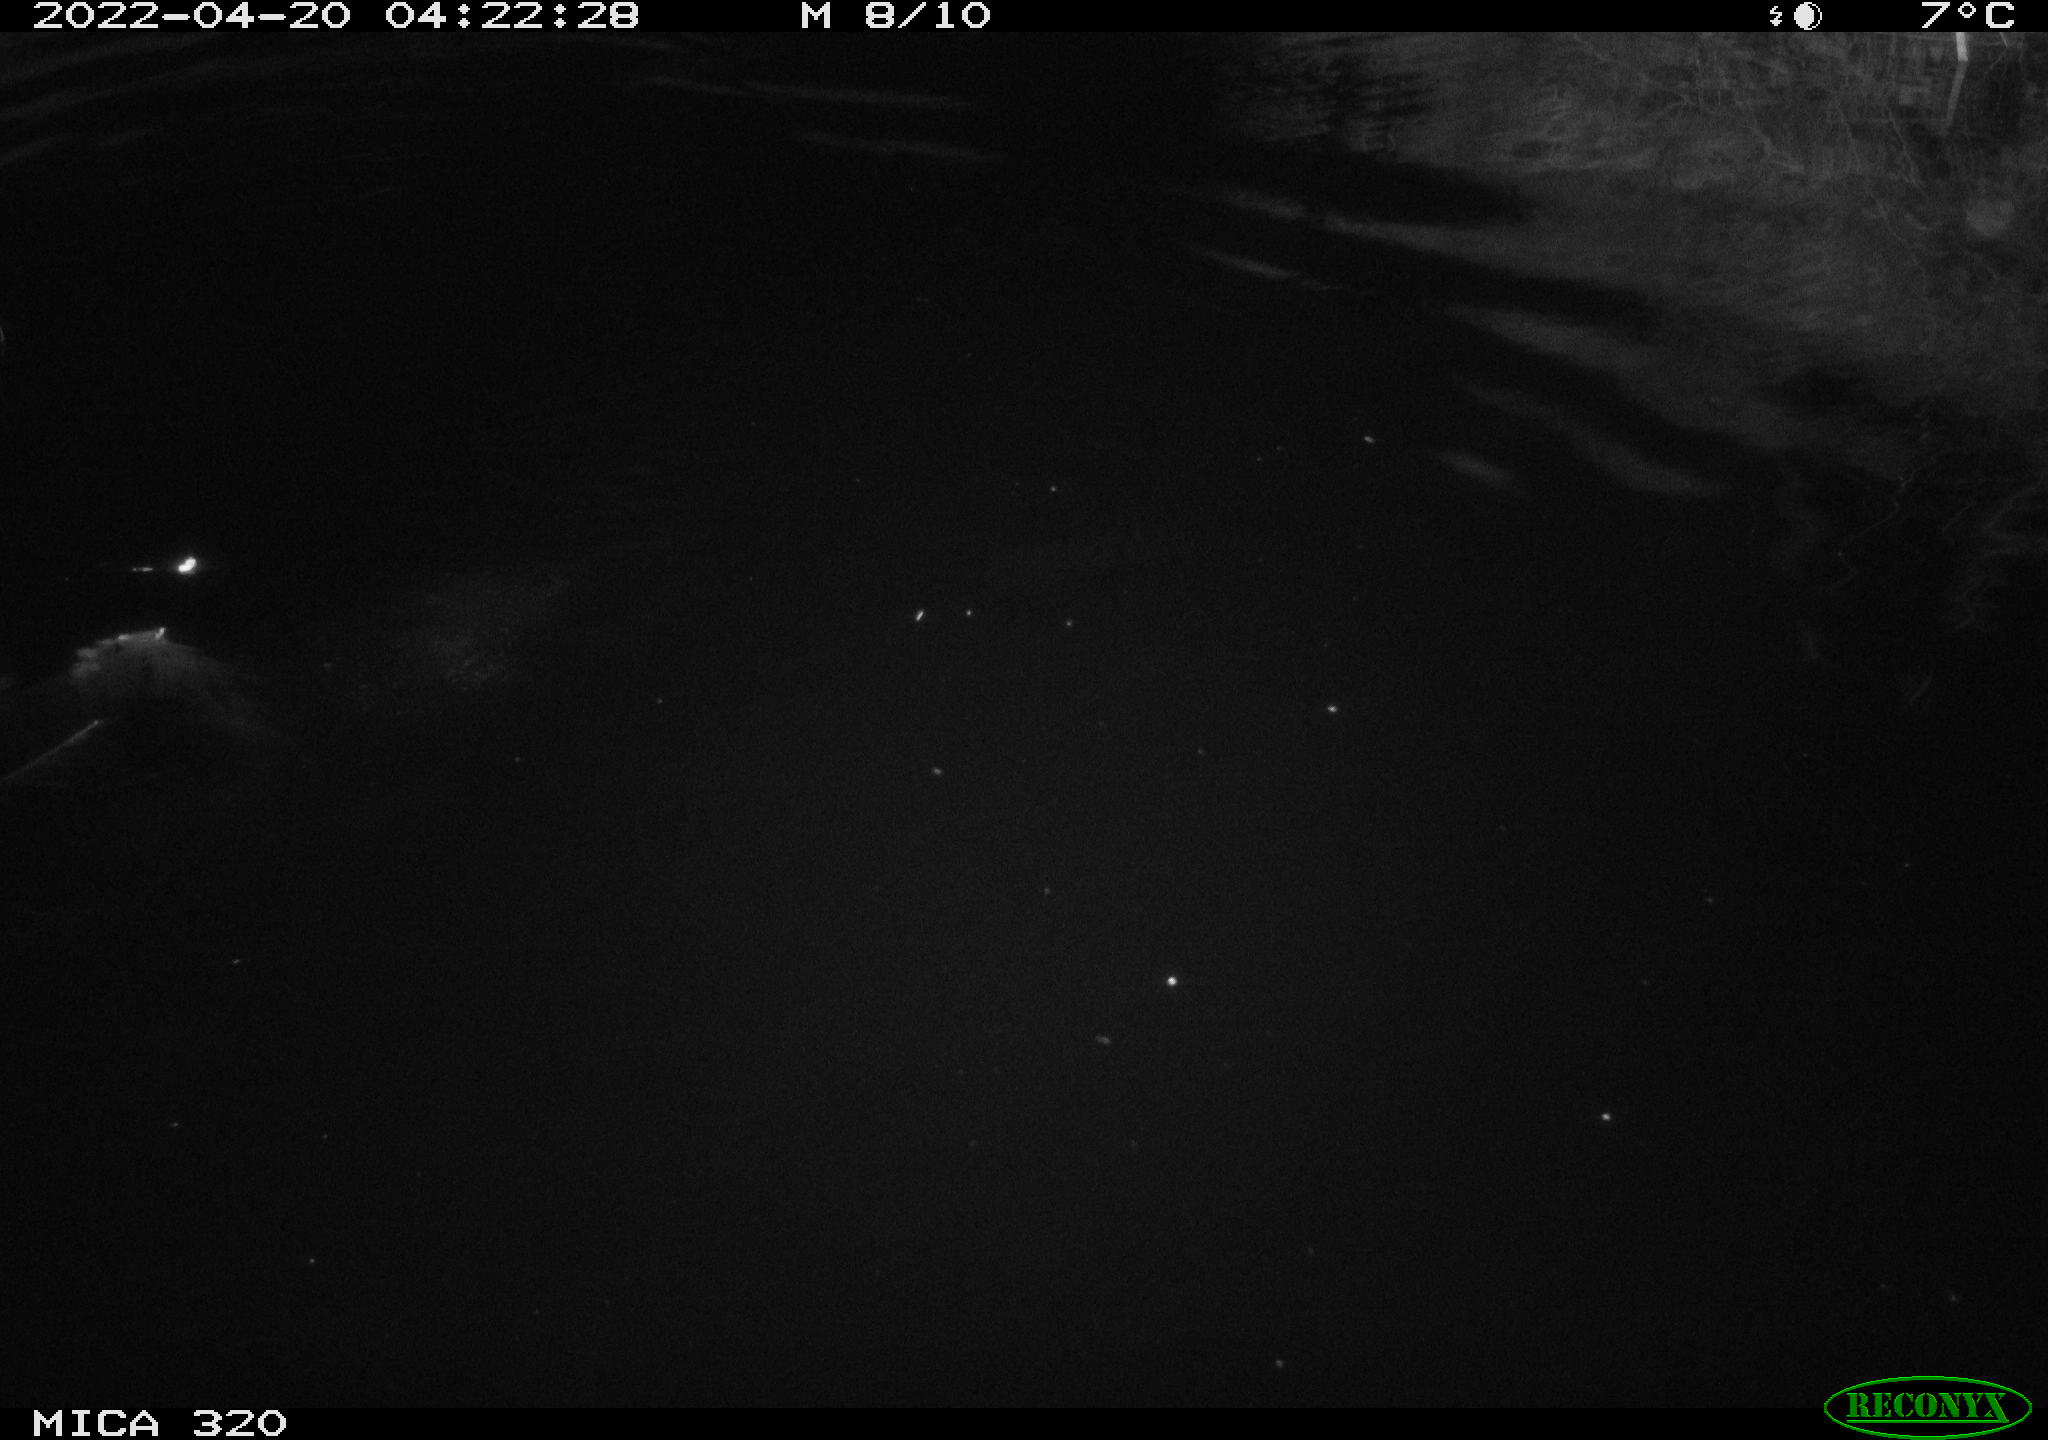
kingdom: Animalia
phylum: Chordata
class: Aves
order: Anseriformes
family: Anatidae
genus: Anas
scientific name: Anas platyrhynchos
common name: Mallard
